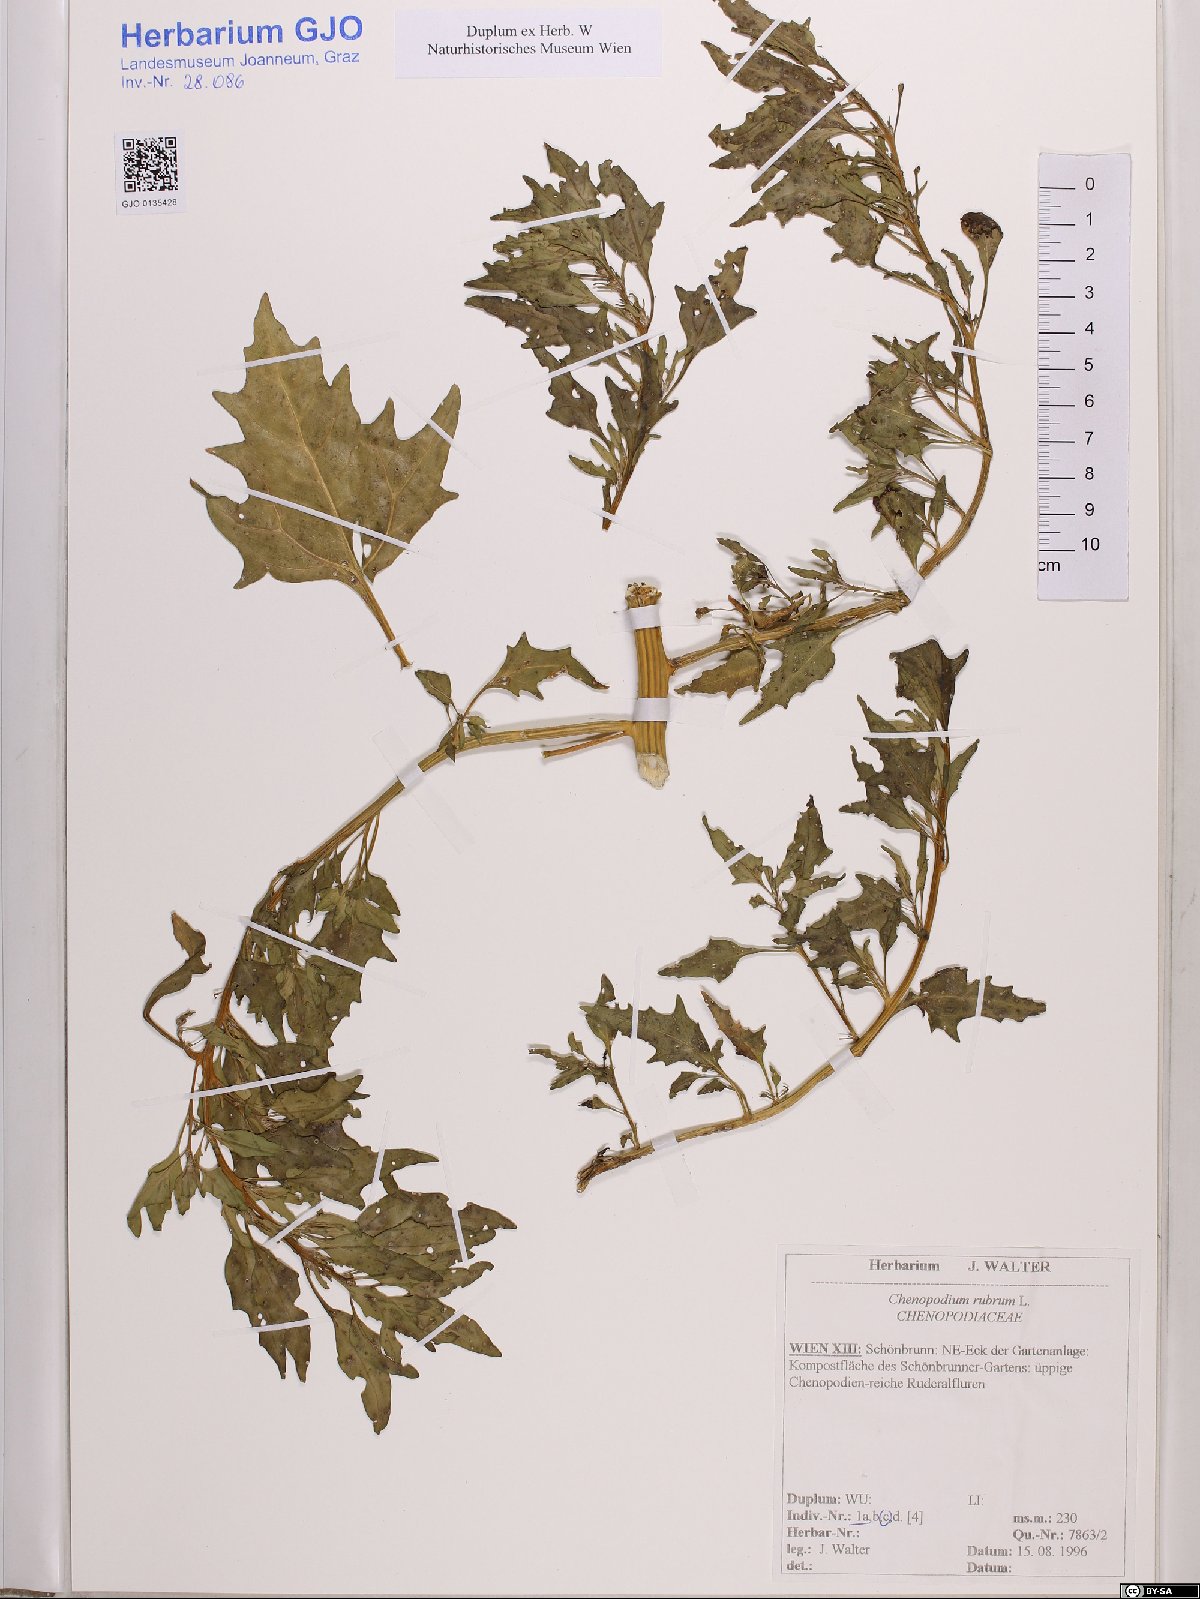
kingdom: Plantae
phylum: Tracheophyta
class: Magnoliopsida
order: Caryophyllales
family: Amaranthaceae
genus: Oxybasis
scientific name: Oxybasis rubra
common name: Red goosefoot
